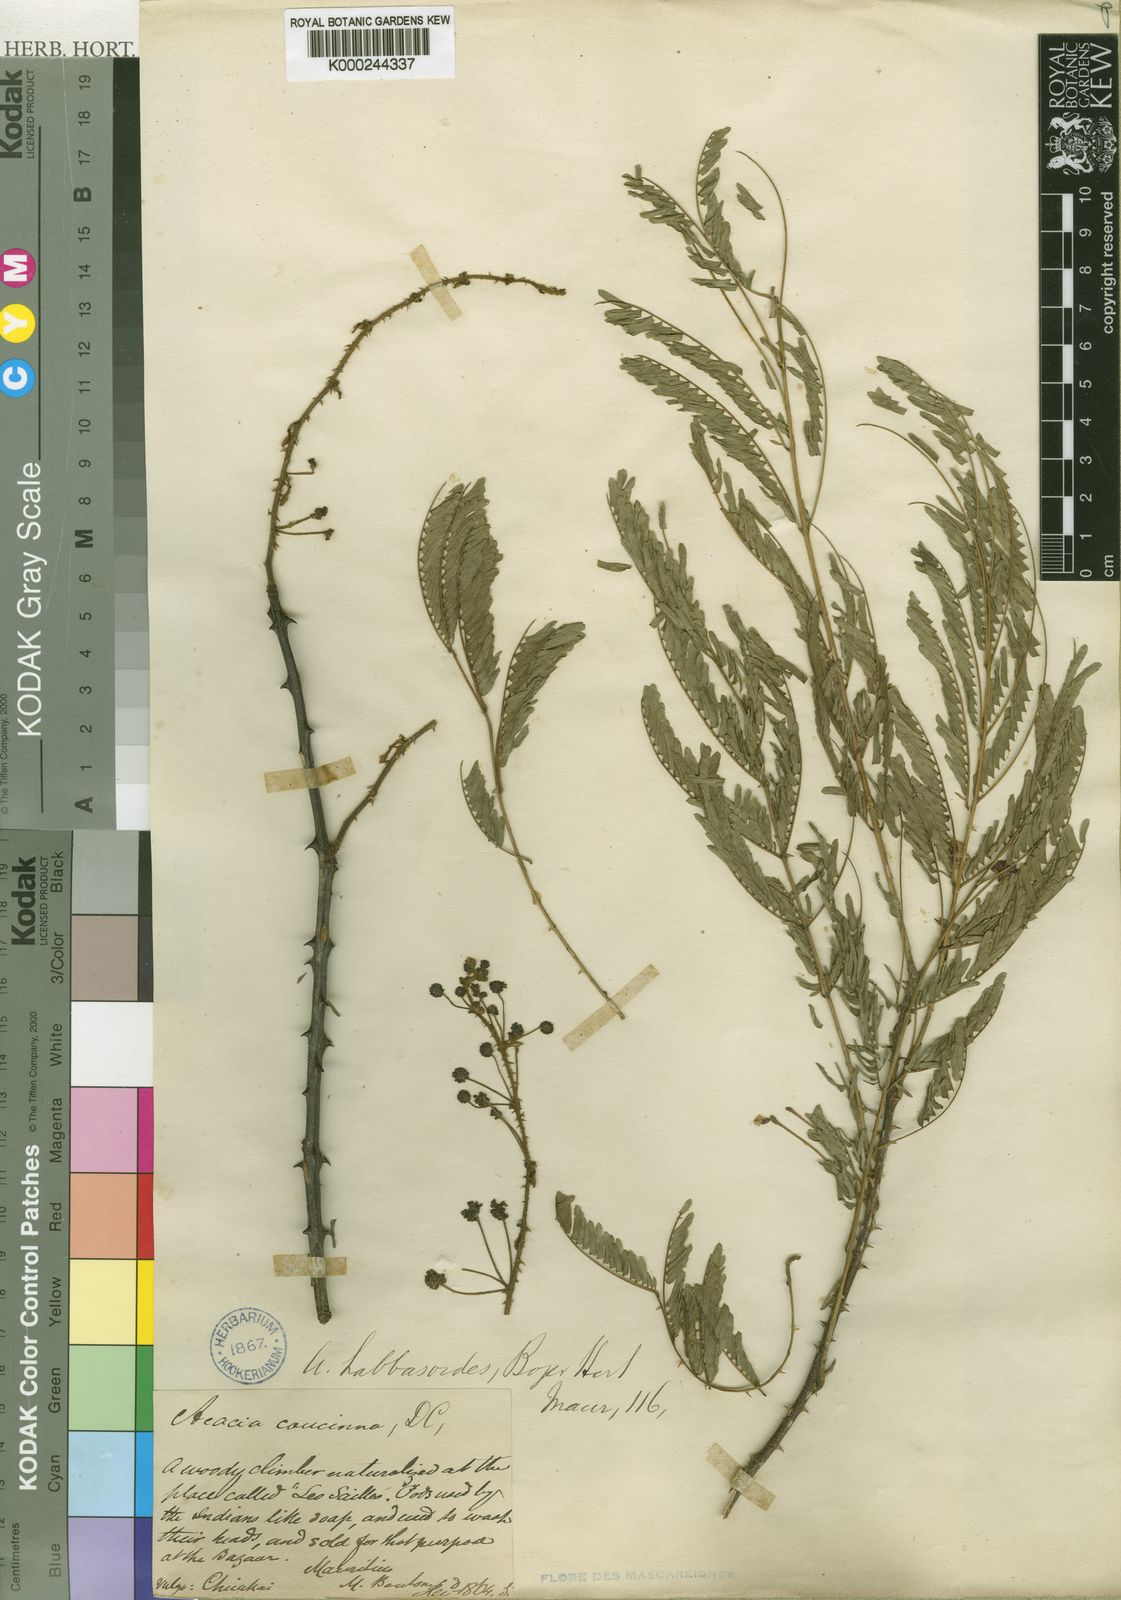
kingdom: Plantae
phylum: Tracheophyta
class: Magnoliopsida
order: Fabales
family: Fabaceae
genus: Acacia
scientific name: Acacia
